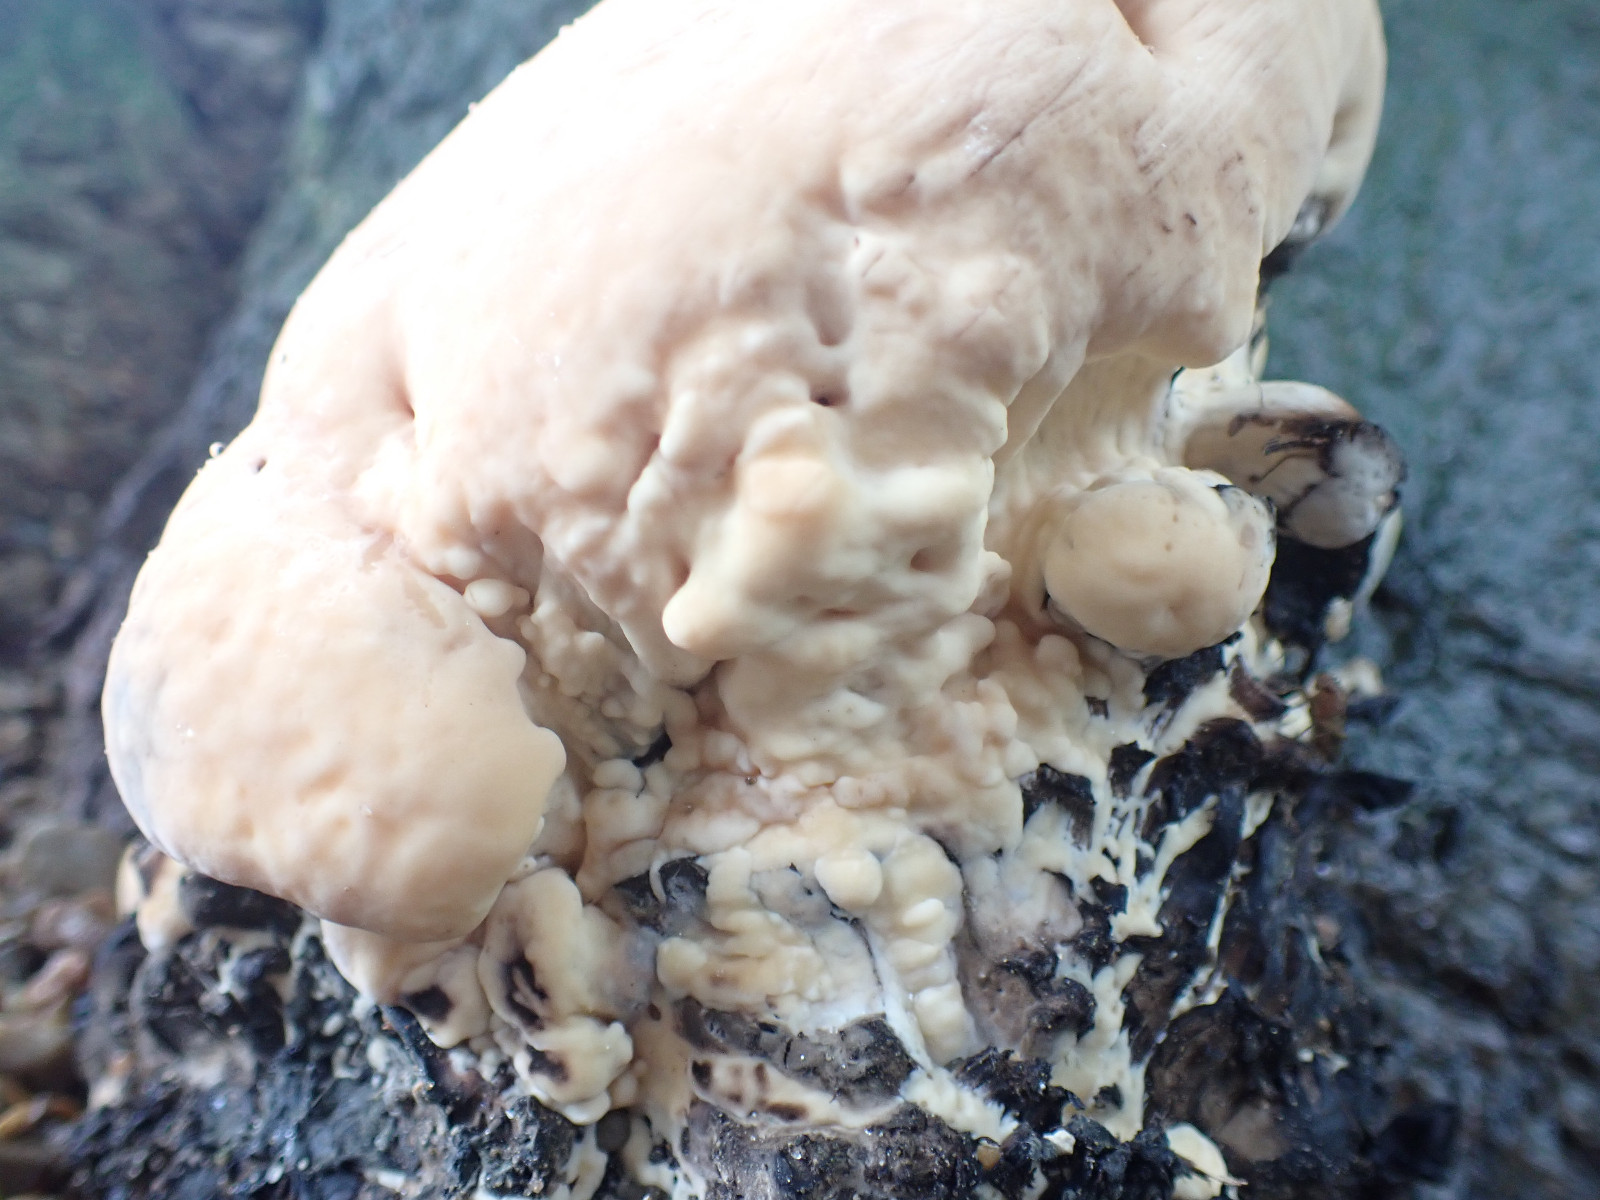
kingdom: Fungi
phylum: Basidiomycota
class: Agaricomycetes
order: Polyporales
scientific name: Polyporales
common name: poresvampordenen
